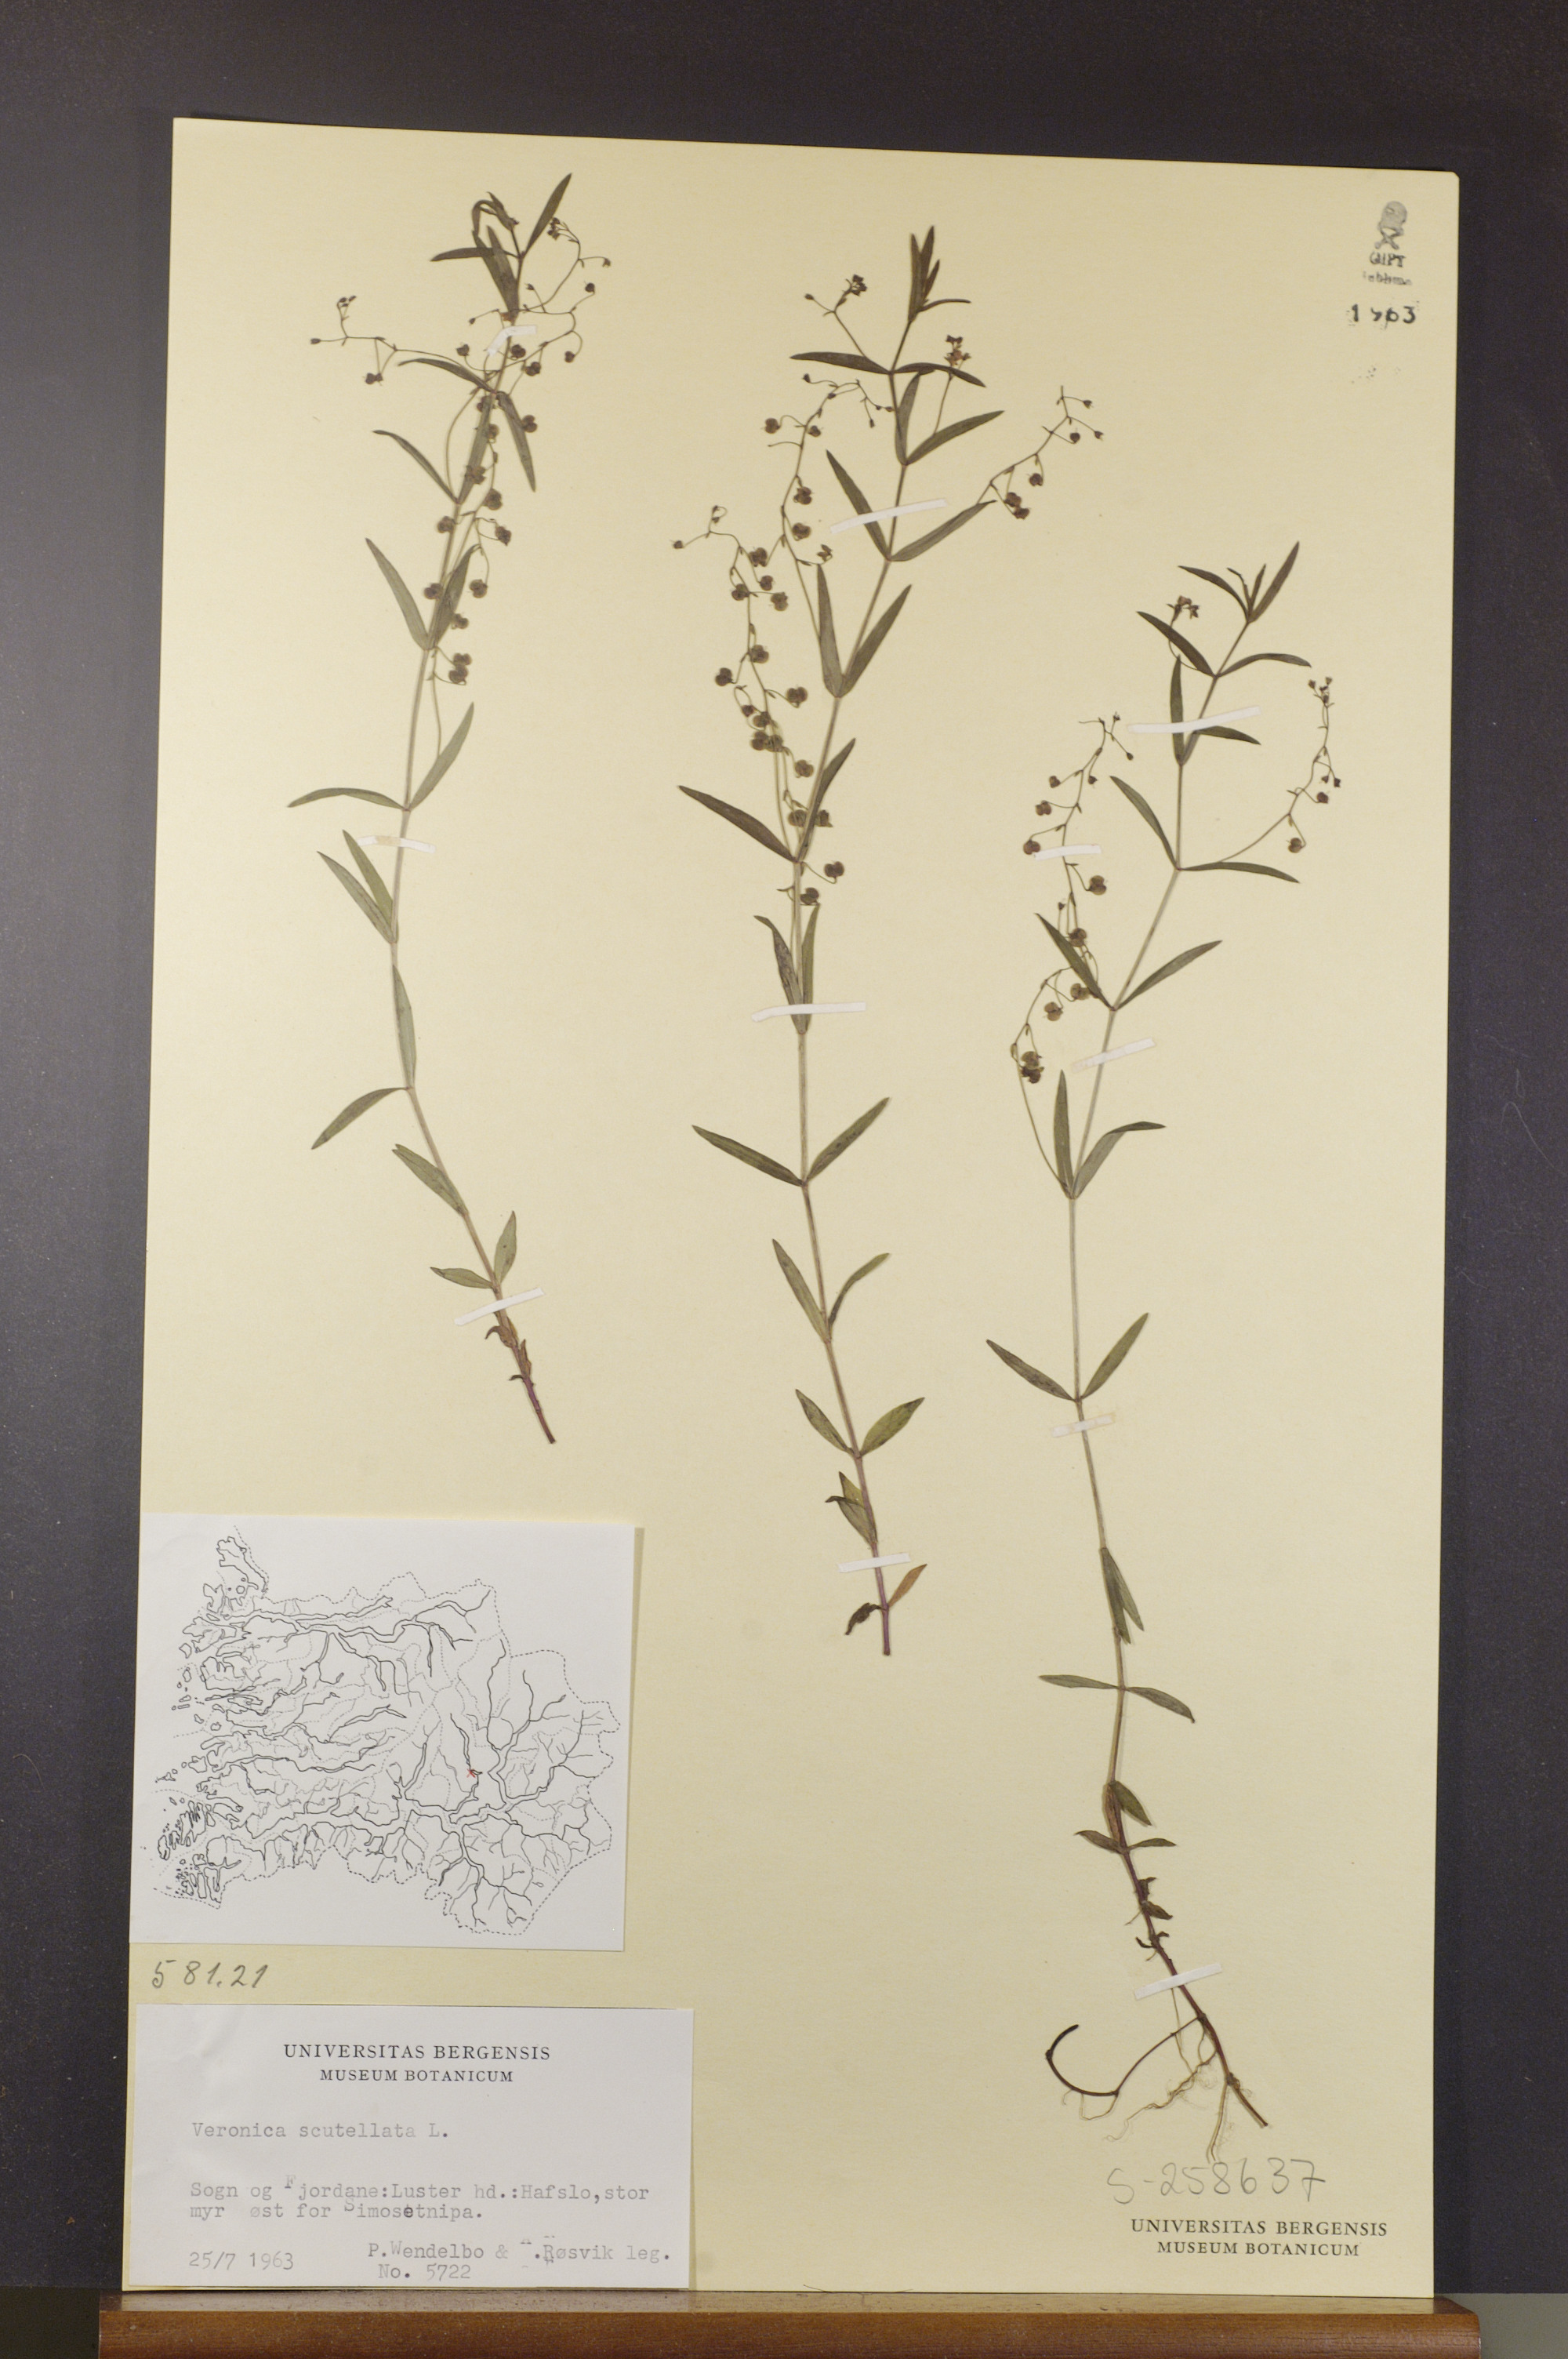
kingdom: Plantae
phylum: Tracheophyta
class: Magnoliopsida
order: Lamiales
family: Plantaginaceae
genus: Veronica
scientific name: Veronica scutellata
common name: Marsh speedwell
